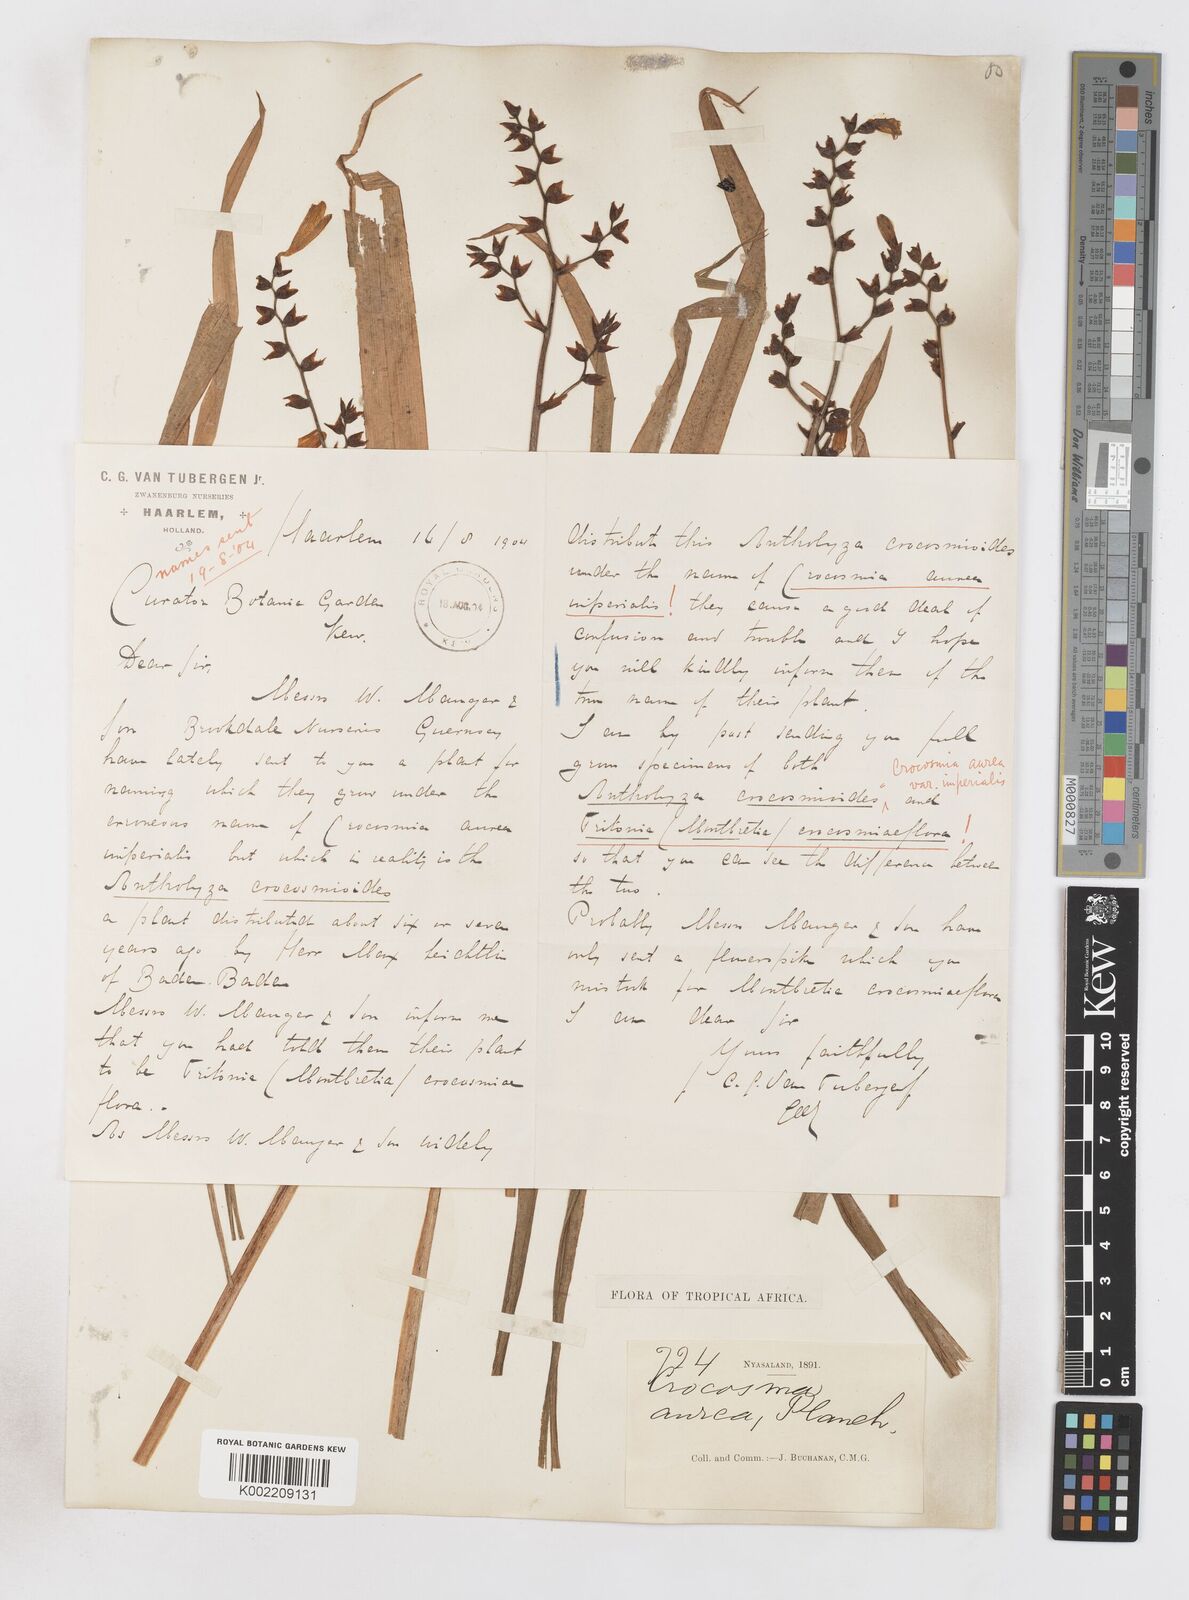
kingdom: Plantae
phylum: Tracheophyta
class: Liliopsida
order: Asparagales
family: Iridaceae
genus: Crocosmia
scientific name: Crocosmia aurea
